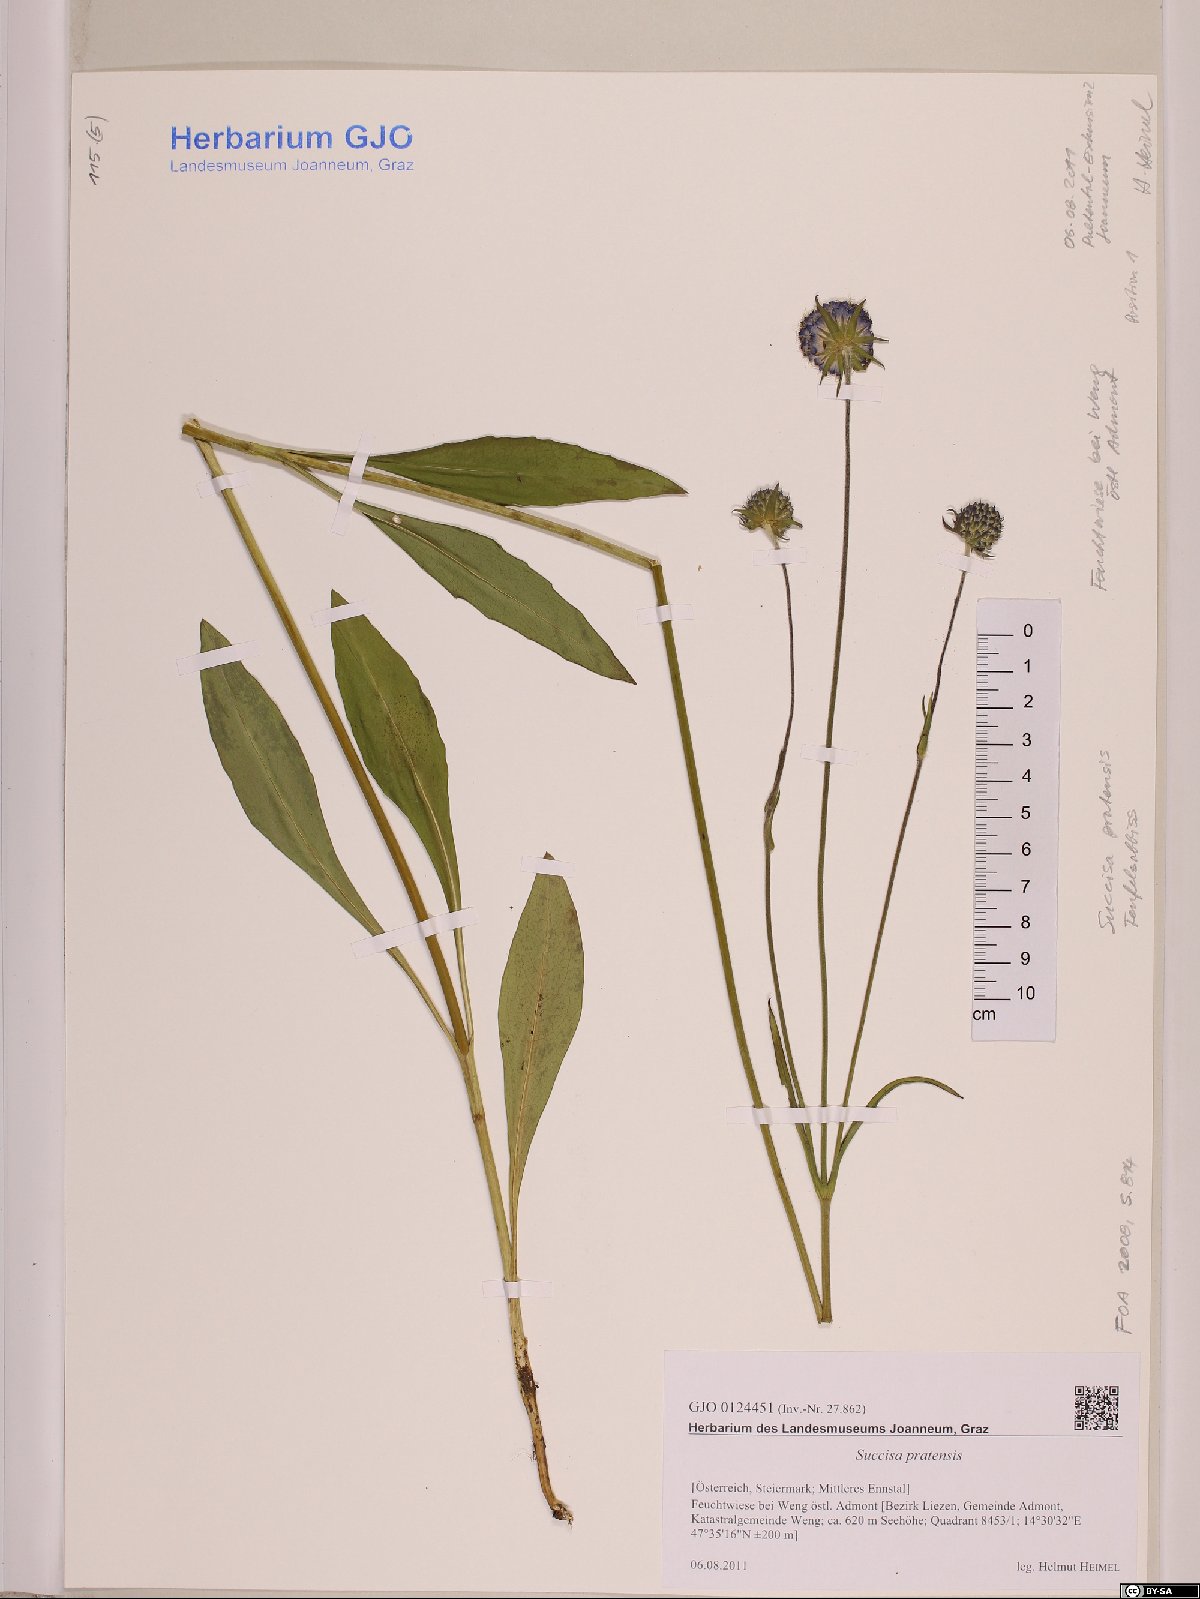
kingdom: Plantae
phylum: Tracheophyta
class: Magnoliopsida
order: Dipsacales
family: Caprifoliaceae
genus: Succisa
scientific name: Succisa pratensis
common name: Devil's-bit
